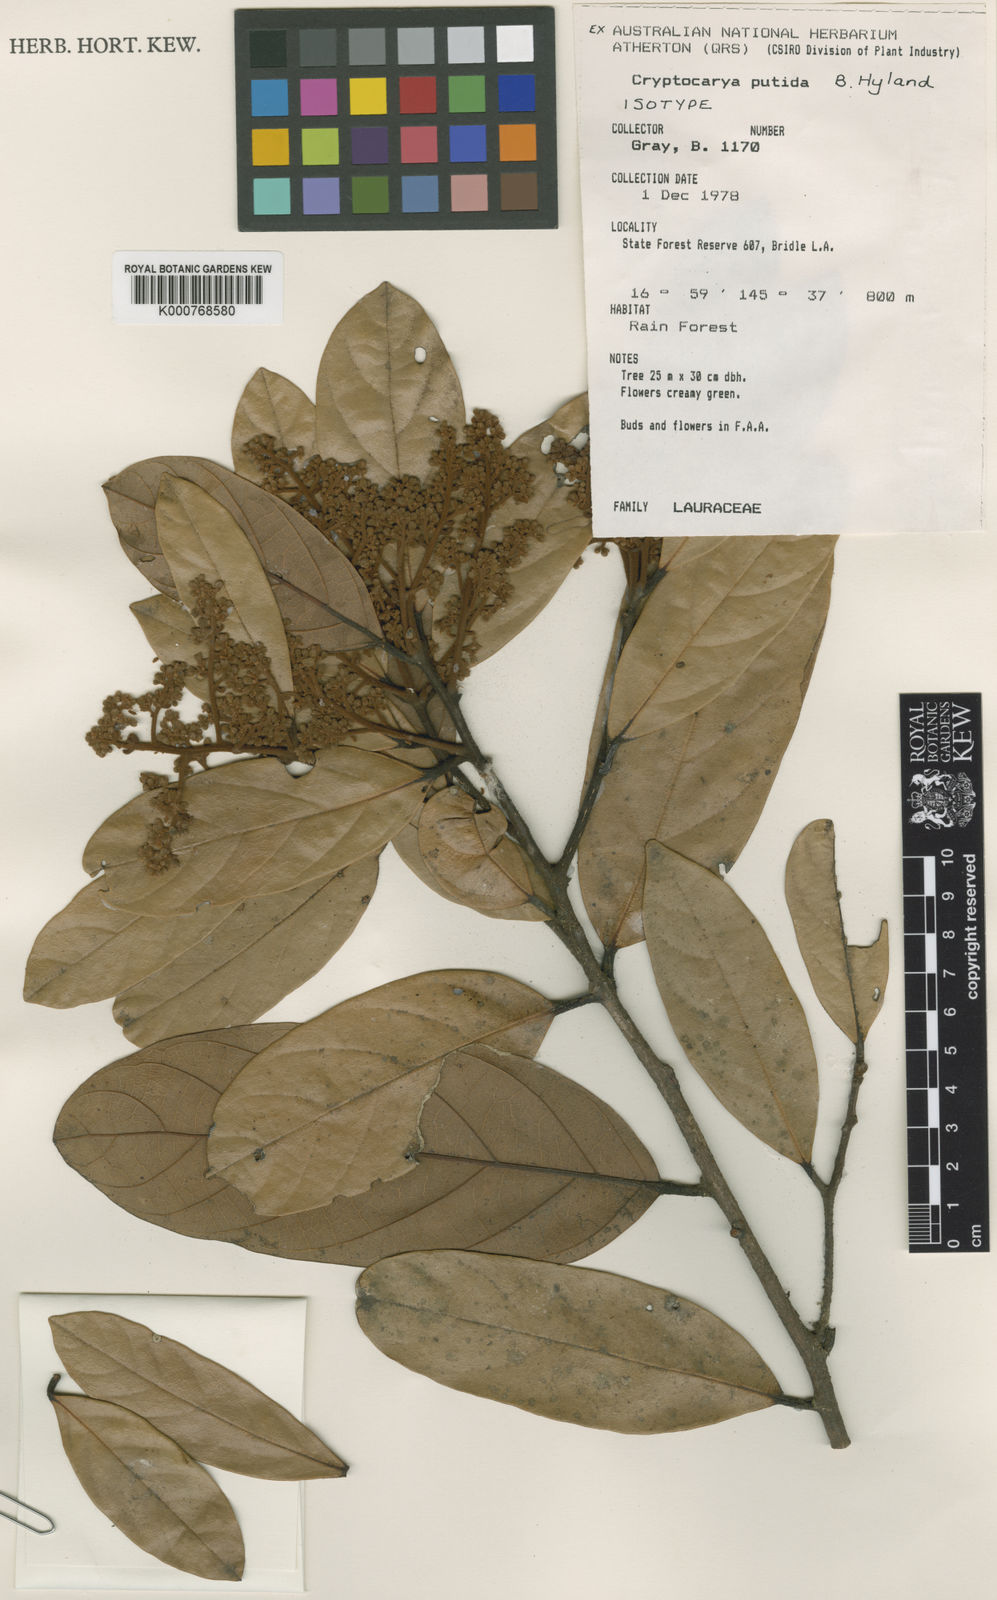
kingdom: Plantae
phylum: Tracheophyta
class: Magnoliopsida
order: Laurales
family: Lauraceae
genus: Cryptocarya
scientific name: Cryptocarya putida
